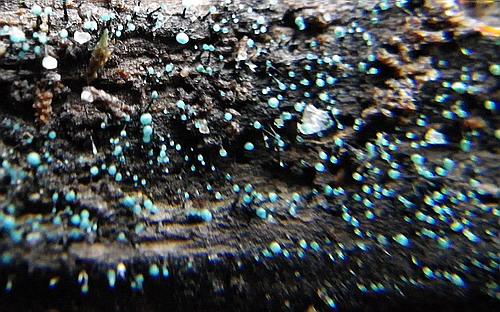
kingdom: Fungi
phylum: Ascomycota
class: Leotiomycetes
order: Leotiales
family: Tympanidaceae
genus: Dendrostilbella
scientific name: Dendrostilbella smaragdina
